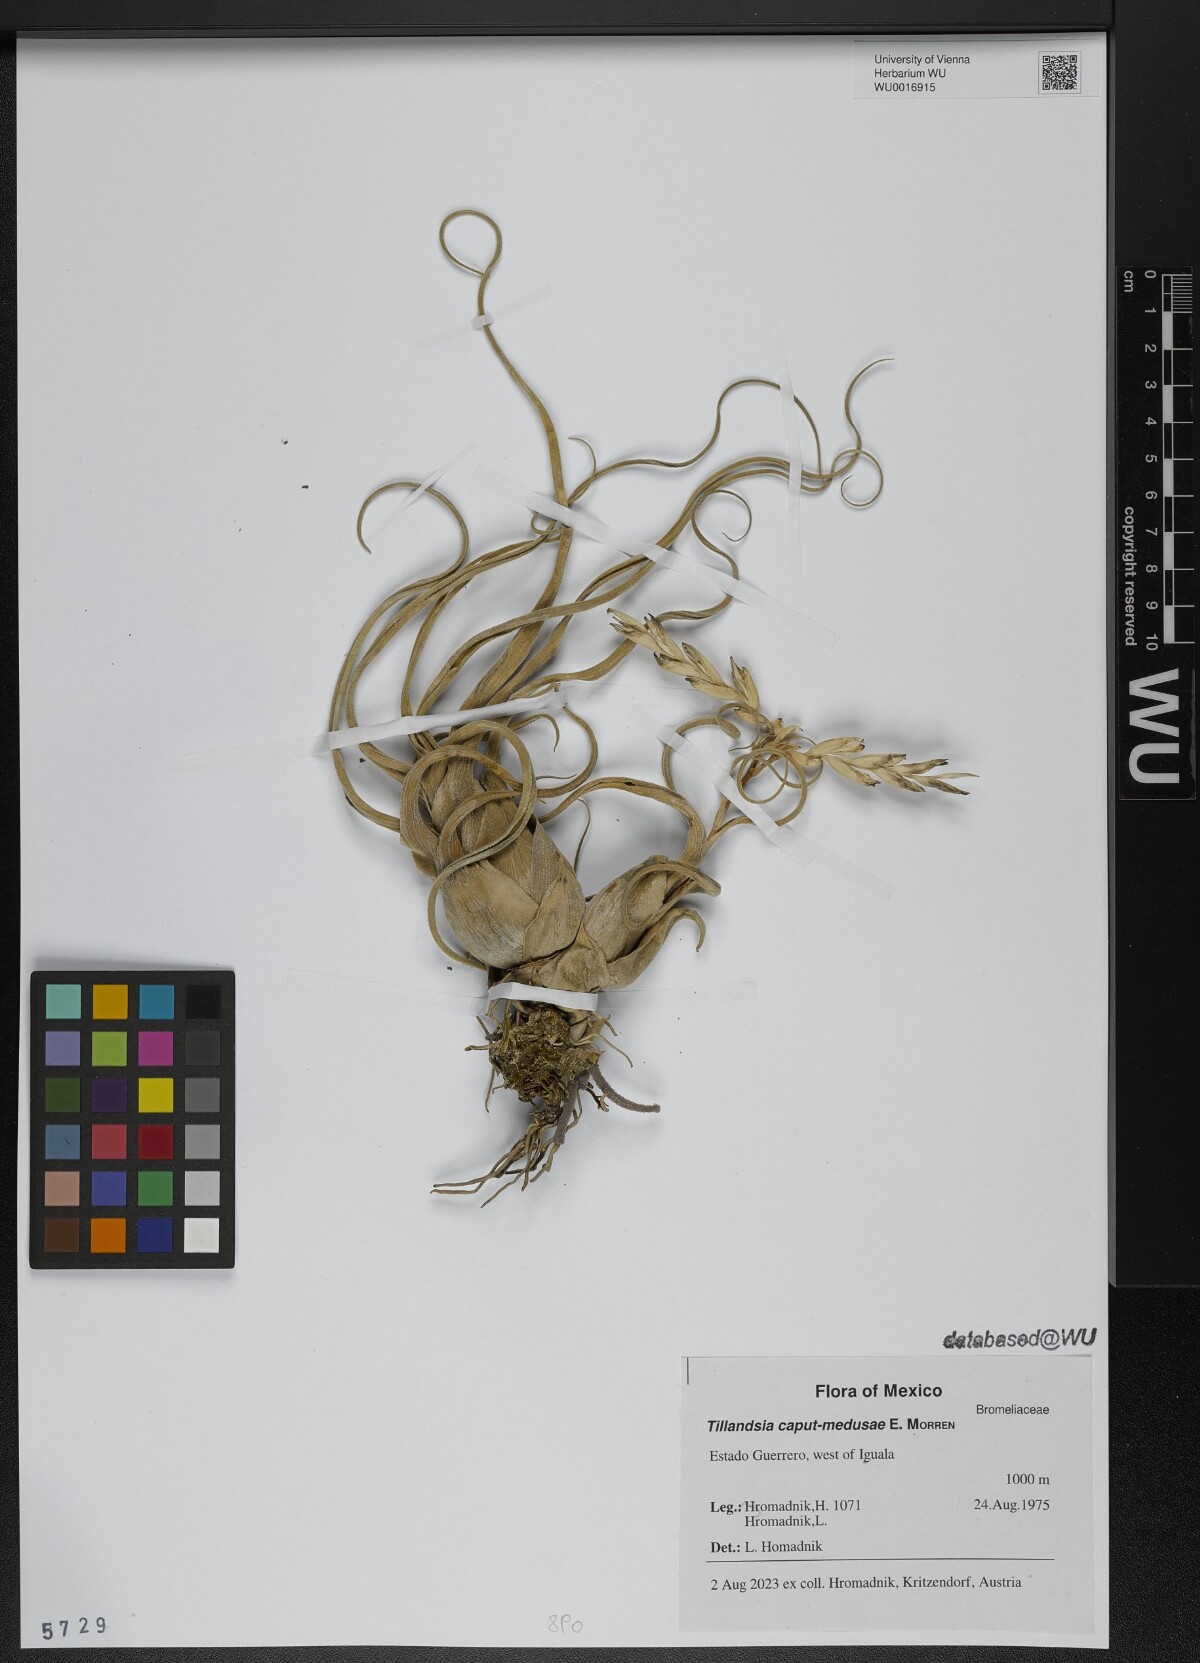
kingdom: Plantae
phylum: Tracheophyta
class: Liliopsida
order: Poales
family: Bromeliaceae
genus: Tillandsia
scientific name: Tillandsia caput-medusae
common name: Octopus plant
